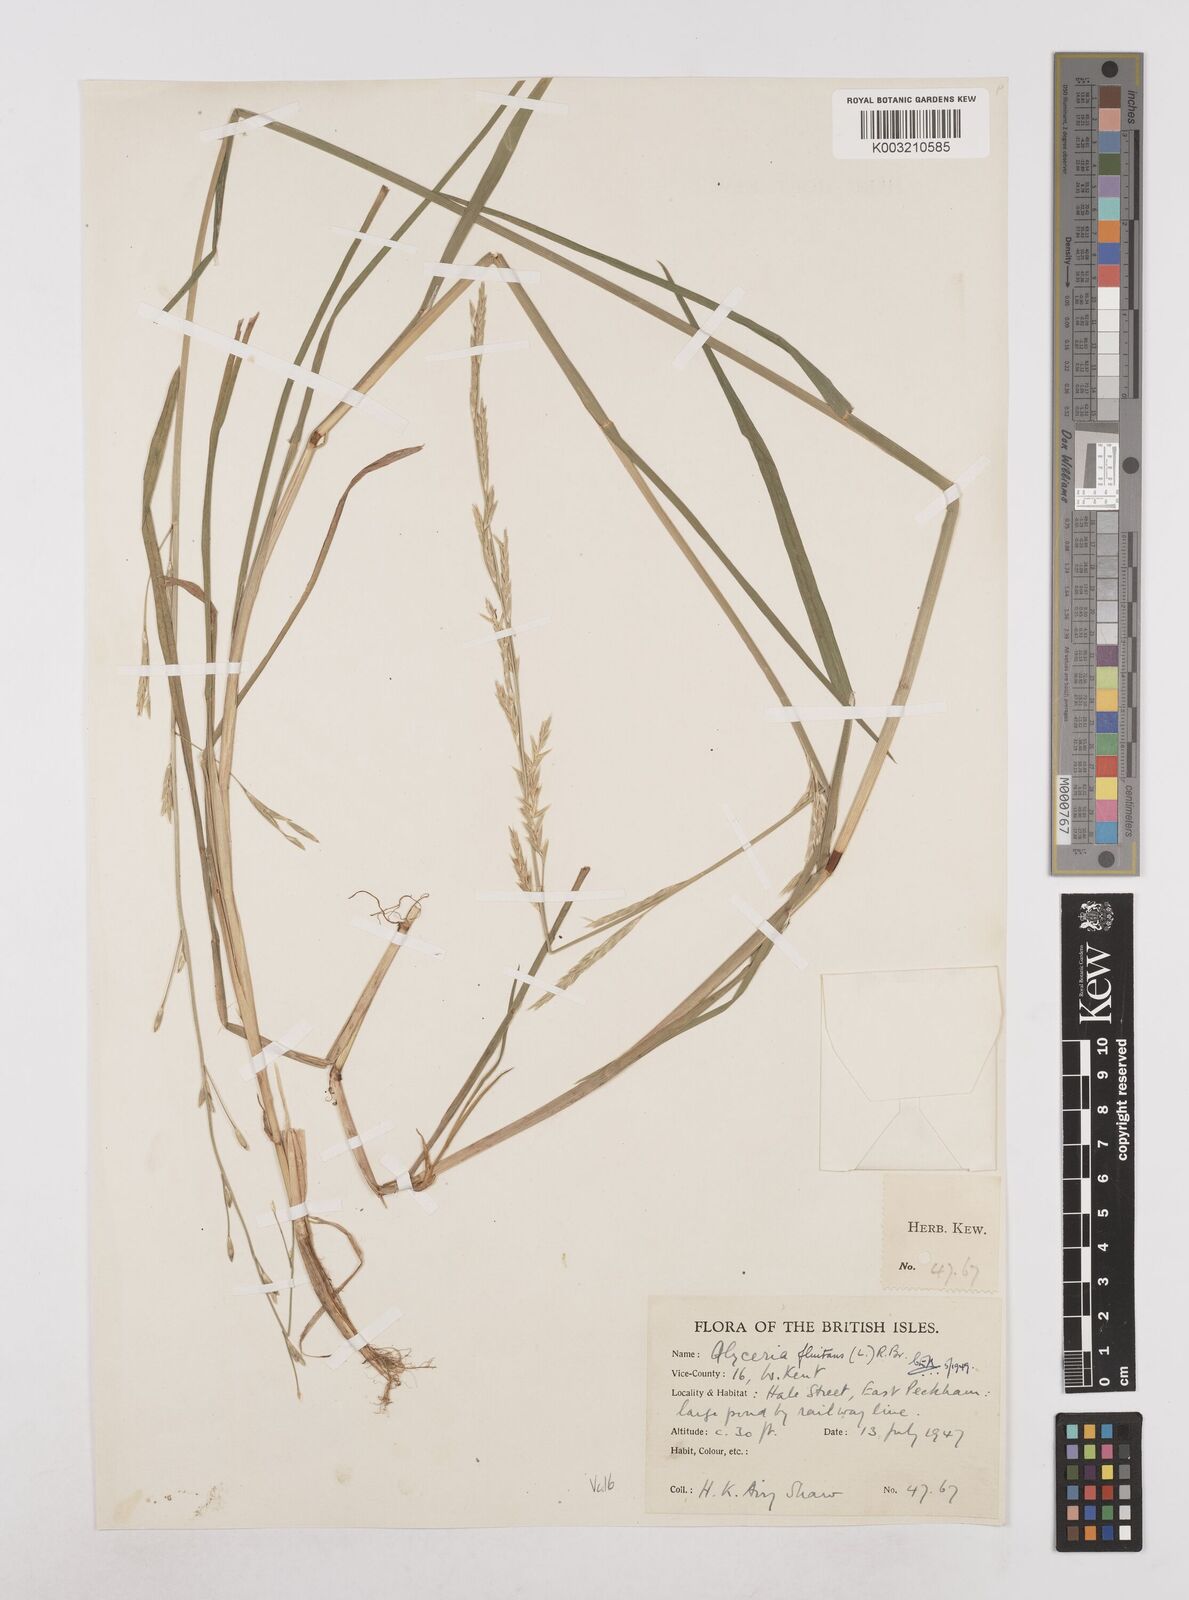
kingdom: Plantae
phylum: Tracheophyta
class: Liliopsida
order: Poales
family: Poaceae
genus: Glyceria
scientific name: Glyceria fluitans
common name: Floating sweet-grass
